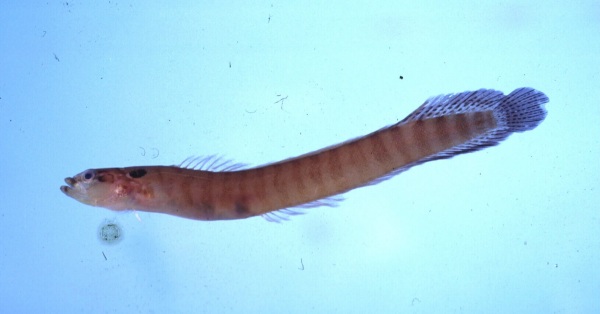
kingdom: Animalia
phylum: Chordata
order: Perciformes
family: Pseudochromidae
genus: Natalichthys
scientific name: Natalichthys sam
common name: Nail snakelet
